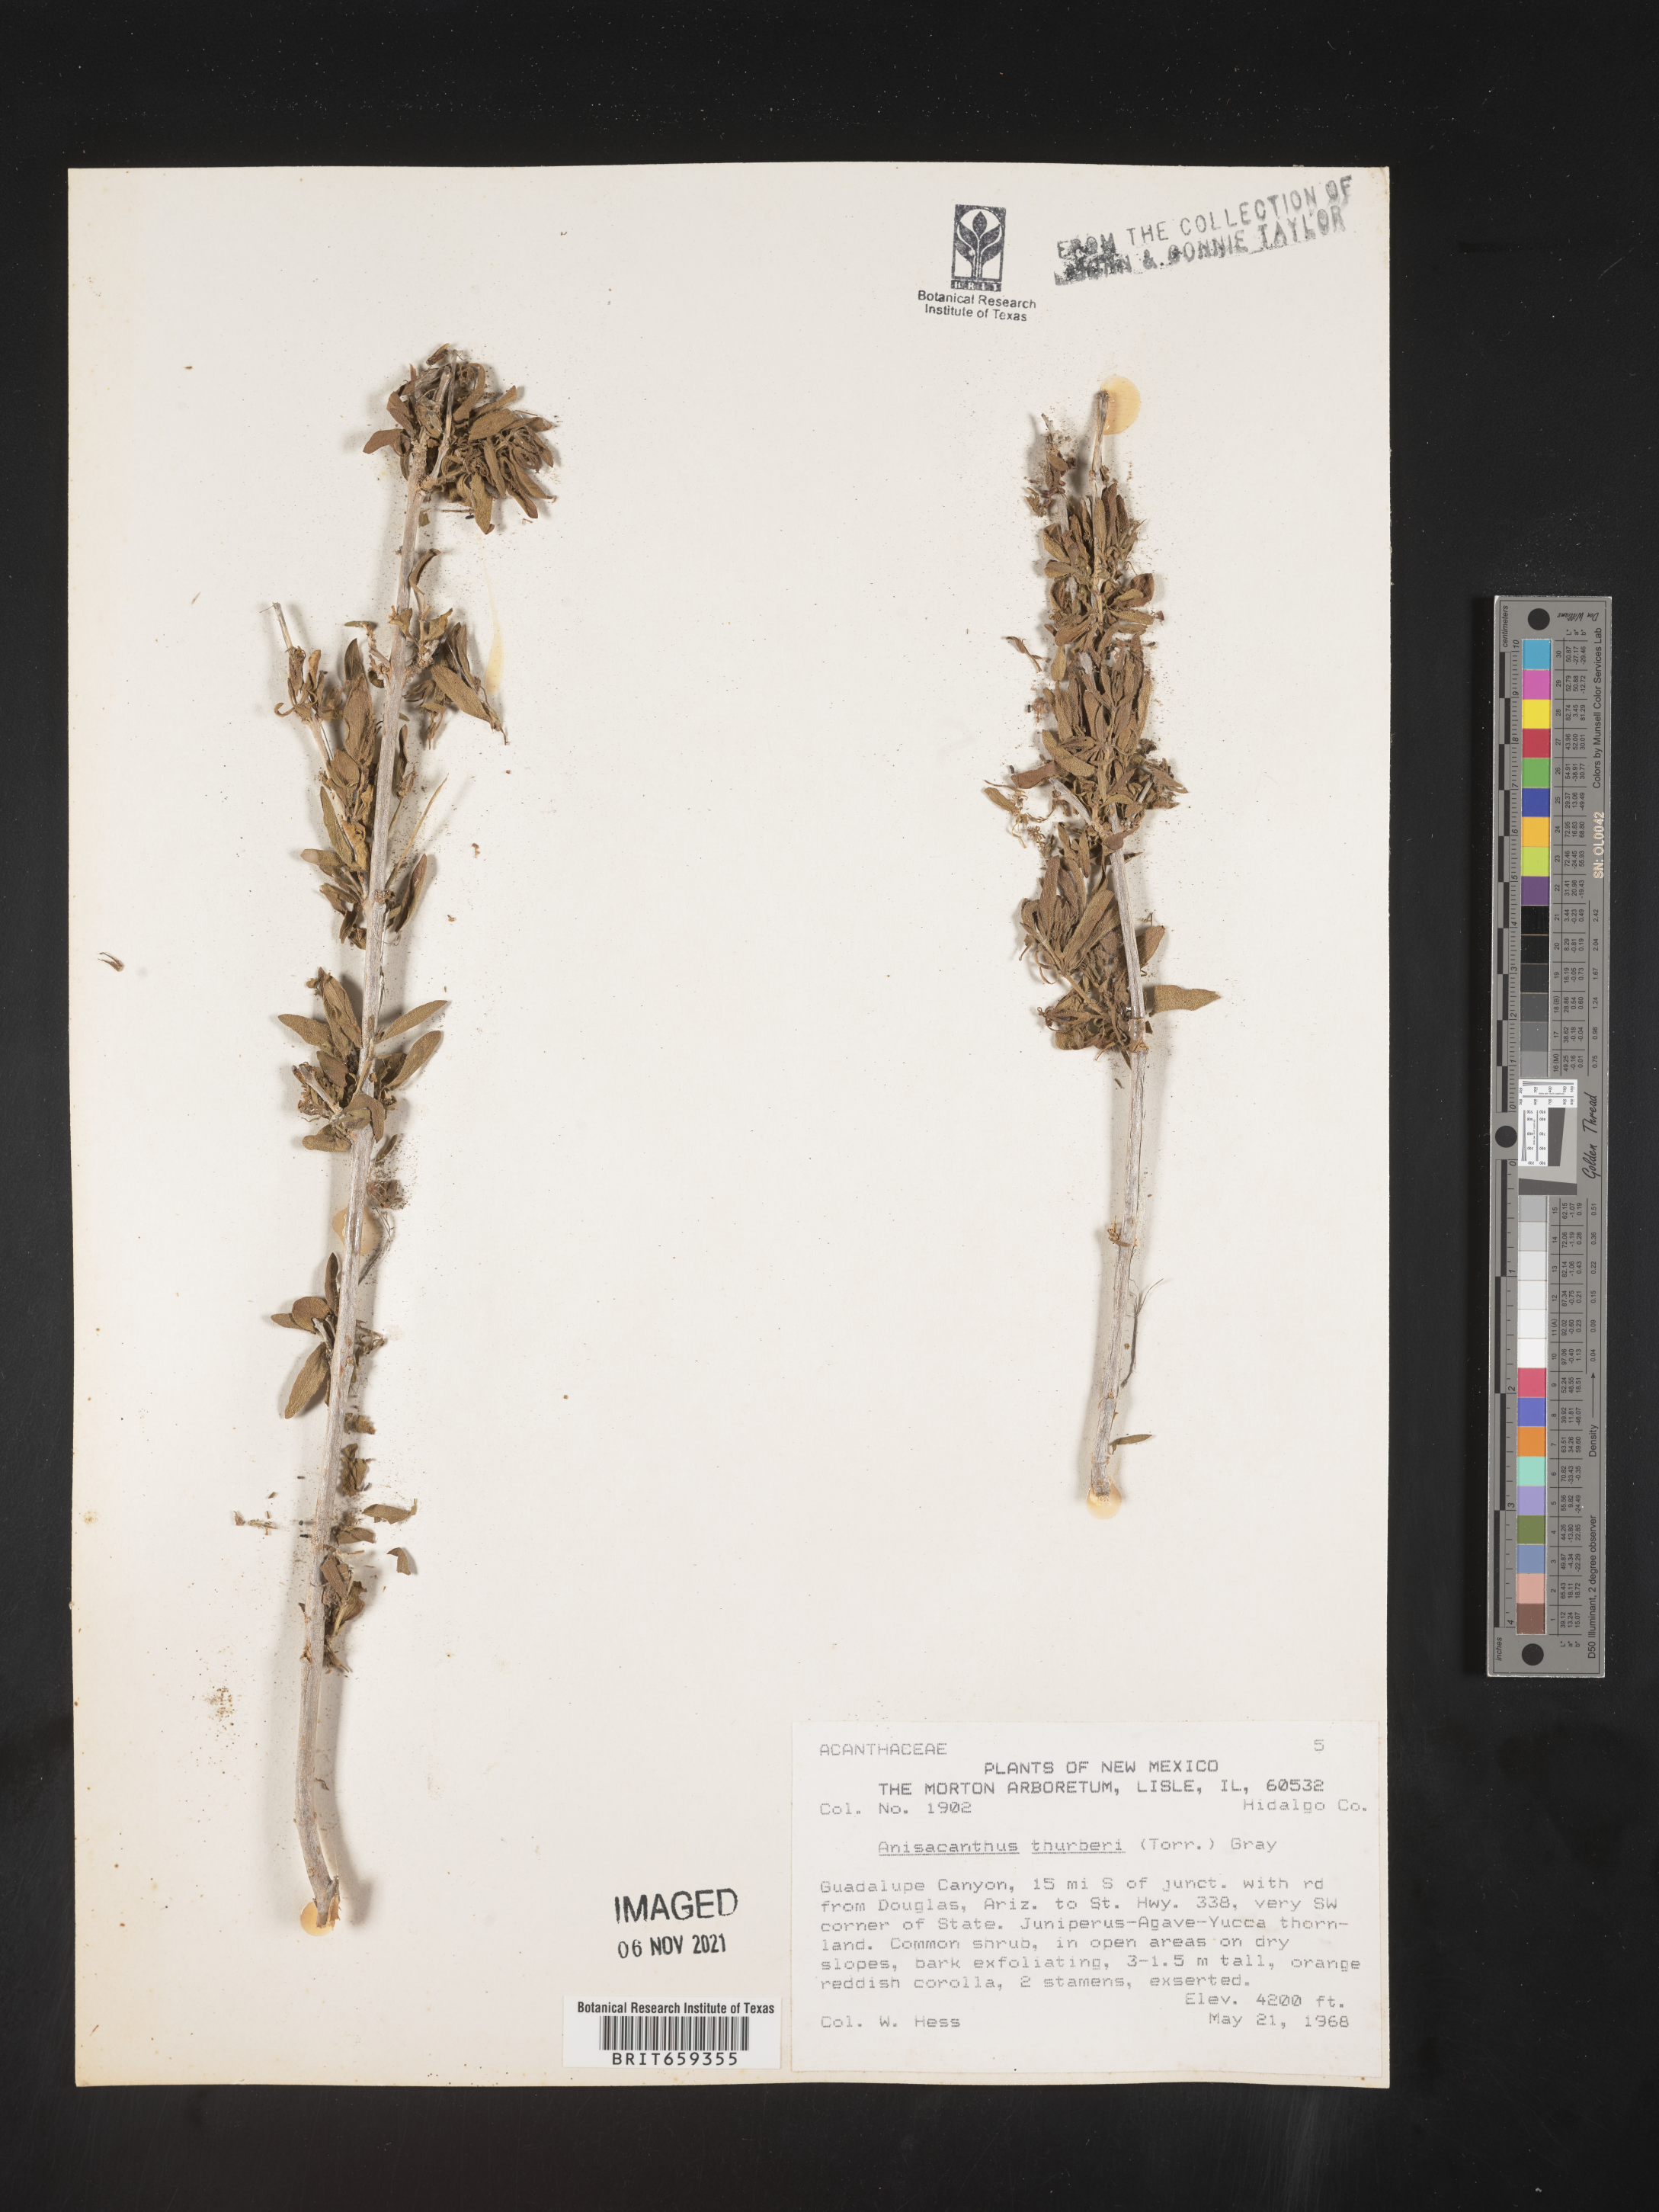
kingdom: Plantae
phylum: Tracheophyta
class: Magnoliopsida
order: Lamiales
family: Acanthaceae
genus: Anisacanthus
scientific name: Anisacanthus
